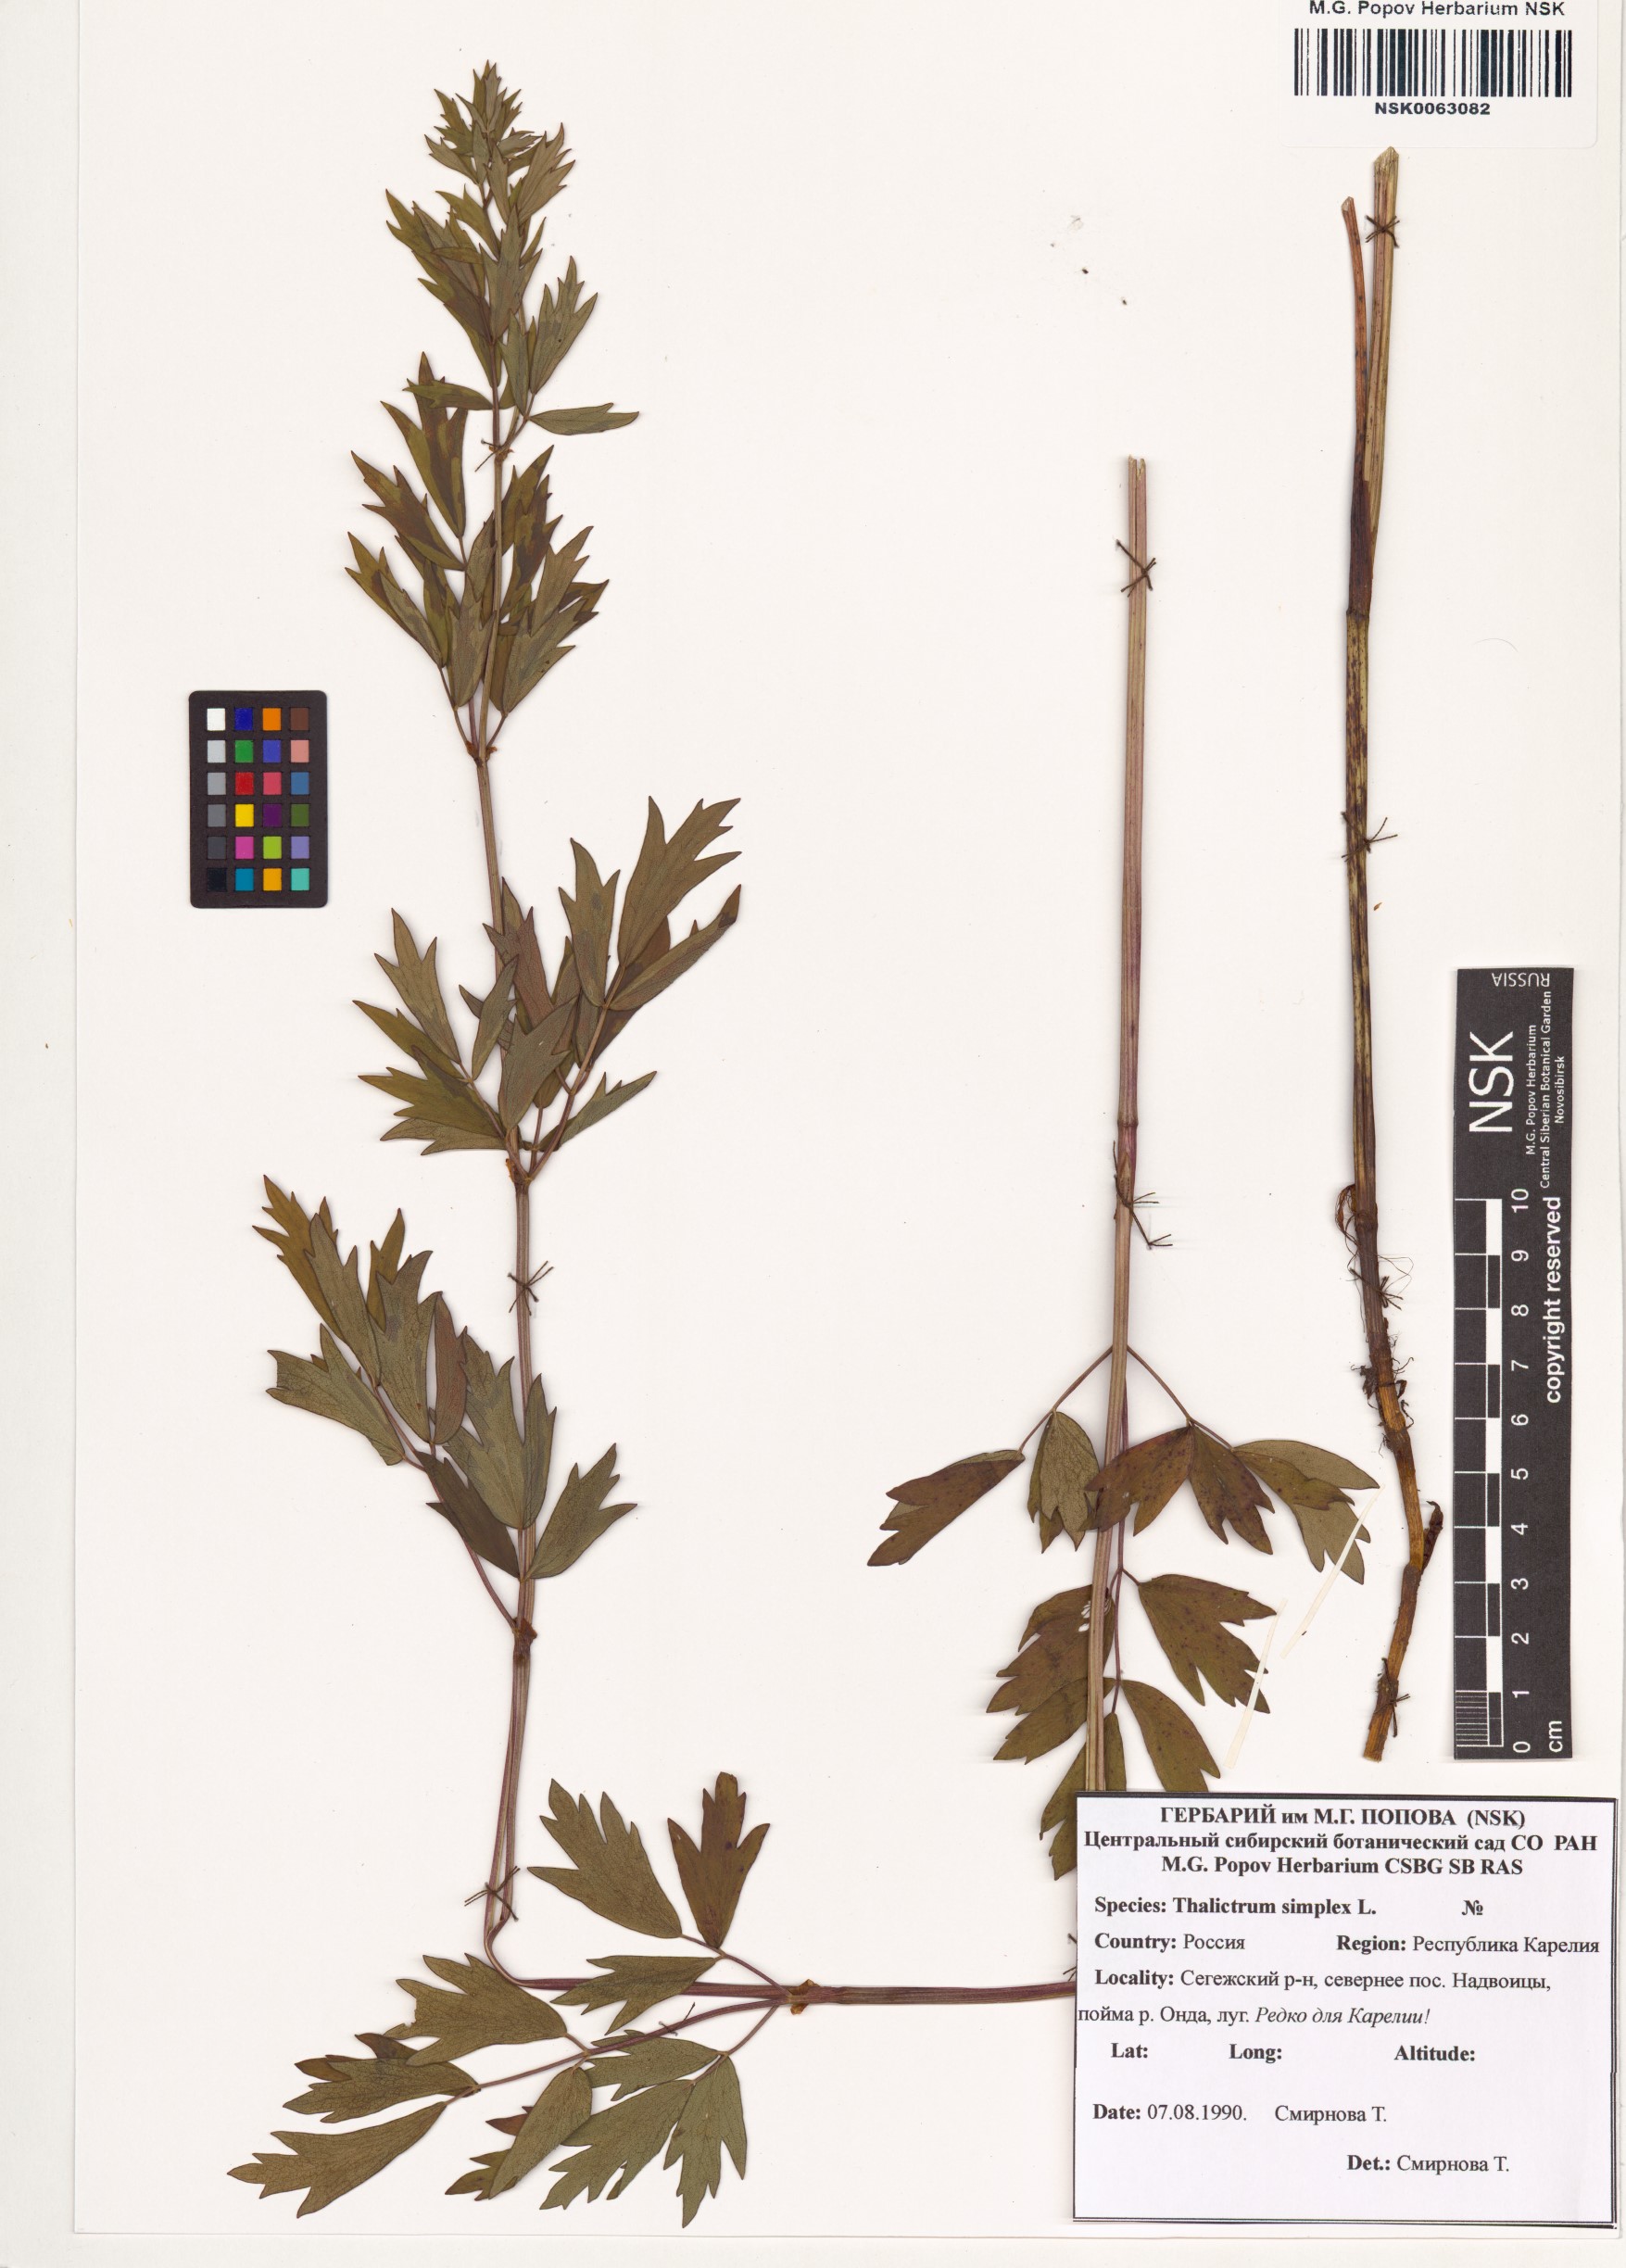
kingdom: Plantae
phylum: Tracheophyta
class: Magnoliopsida
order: Ranunculales
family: Ranunculaceae
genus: Thalictrum
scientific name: Thalictrum simplex
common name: Small meadow-rue
